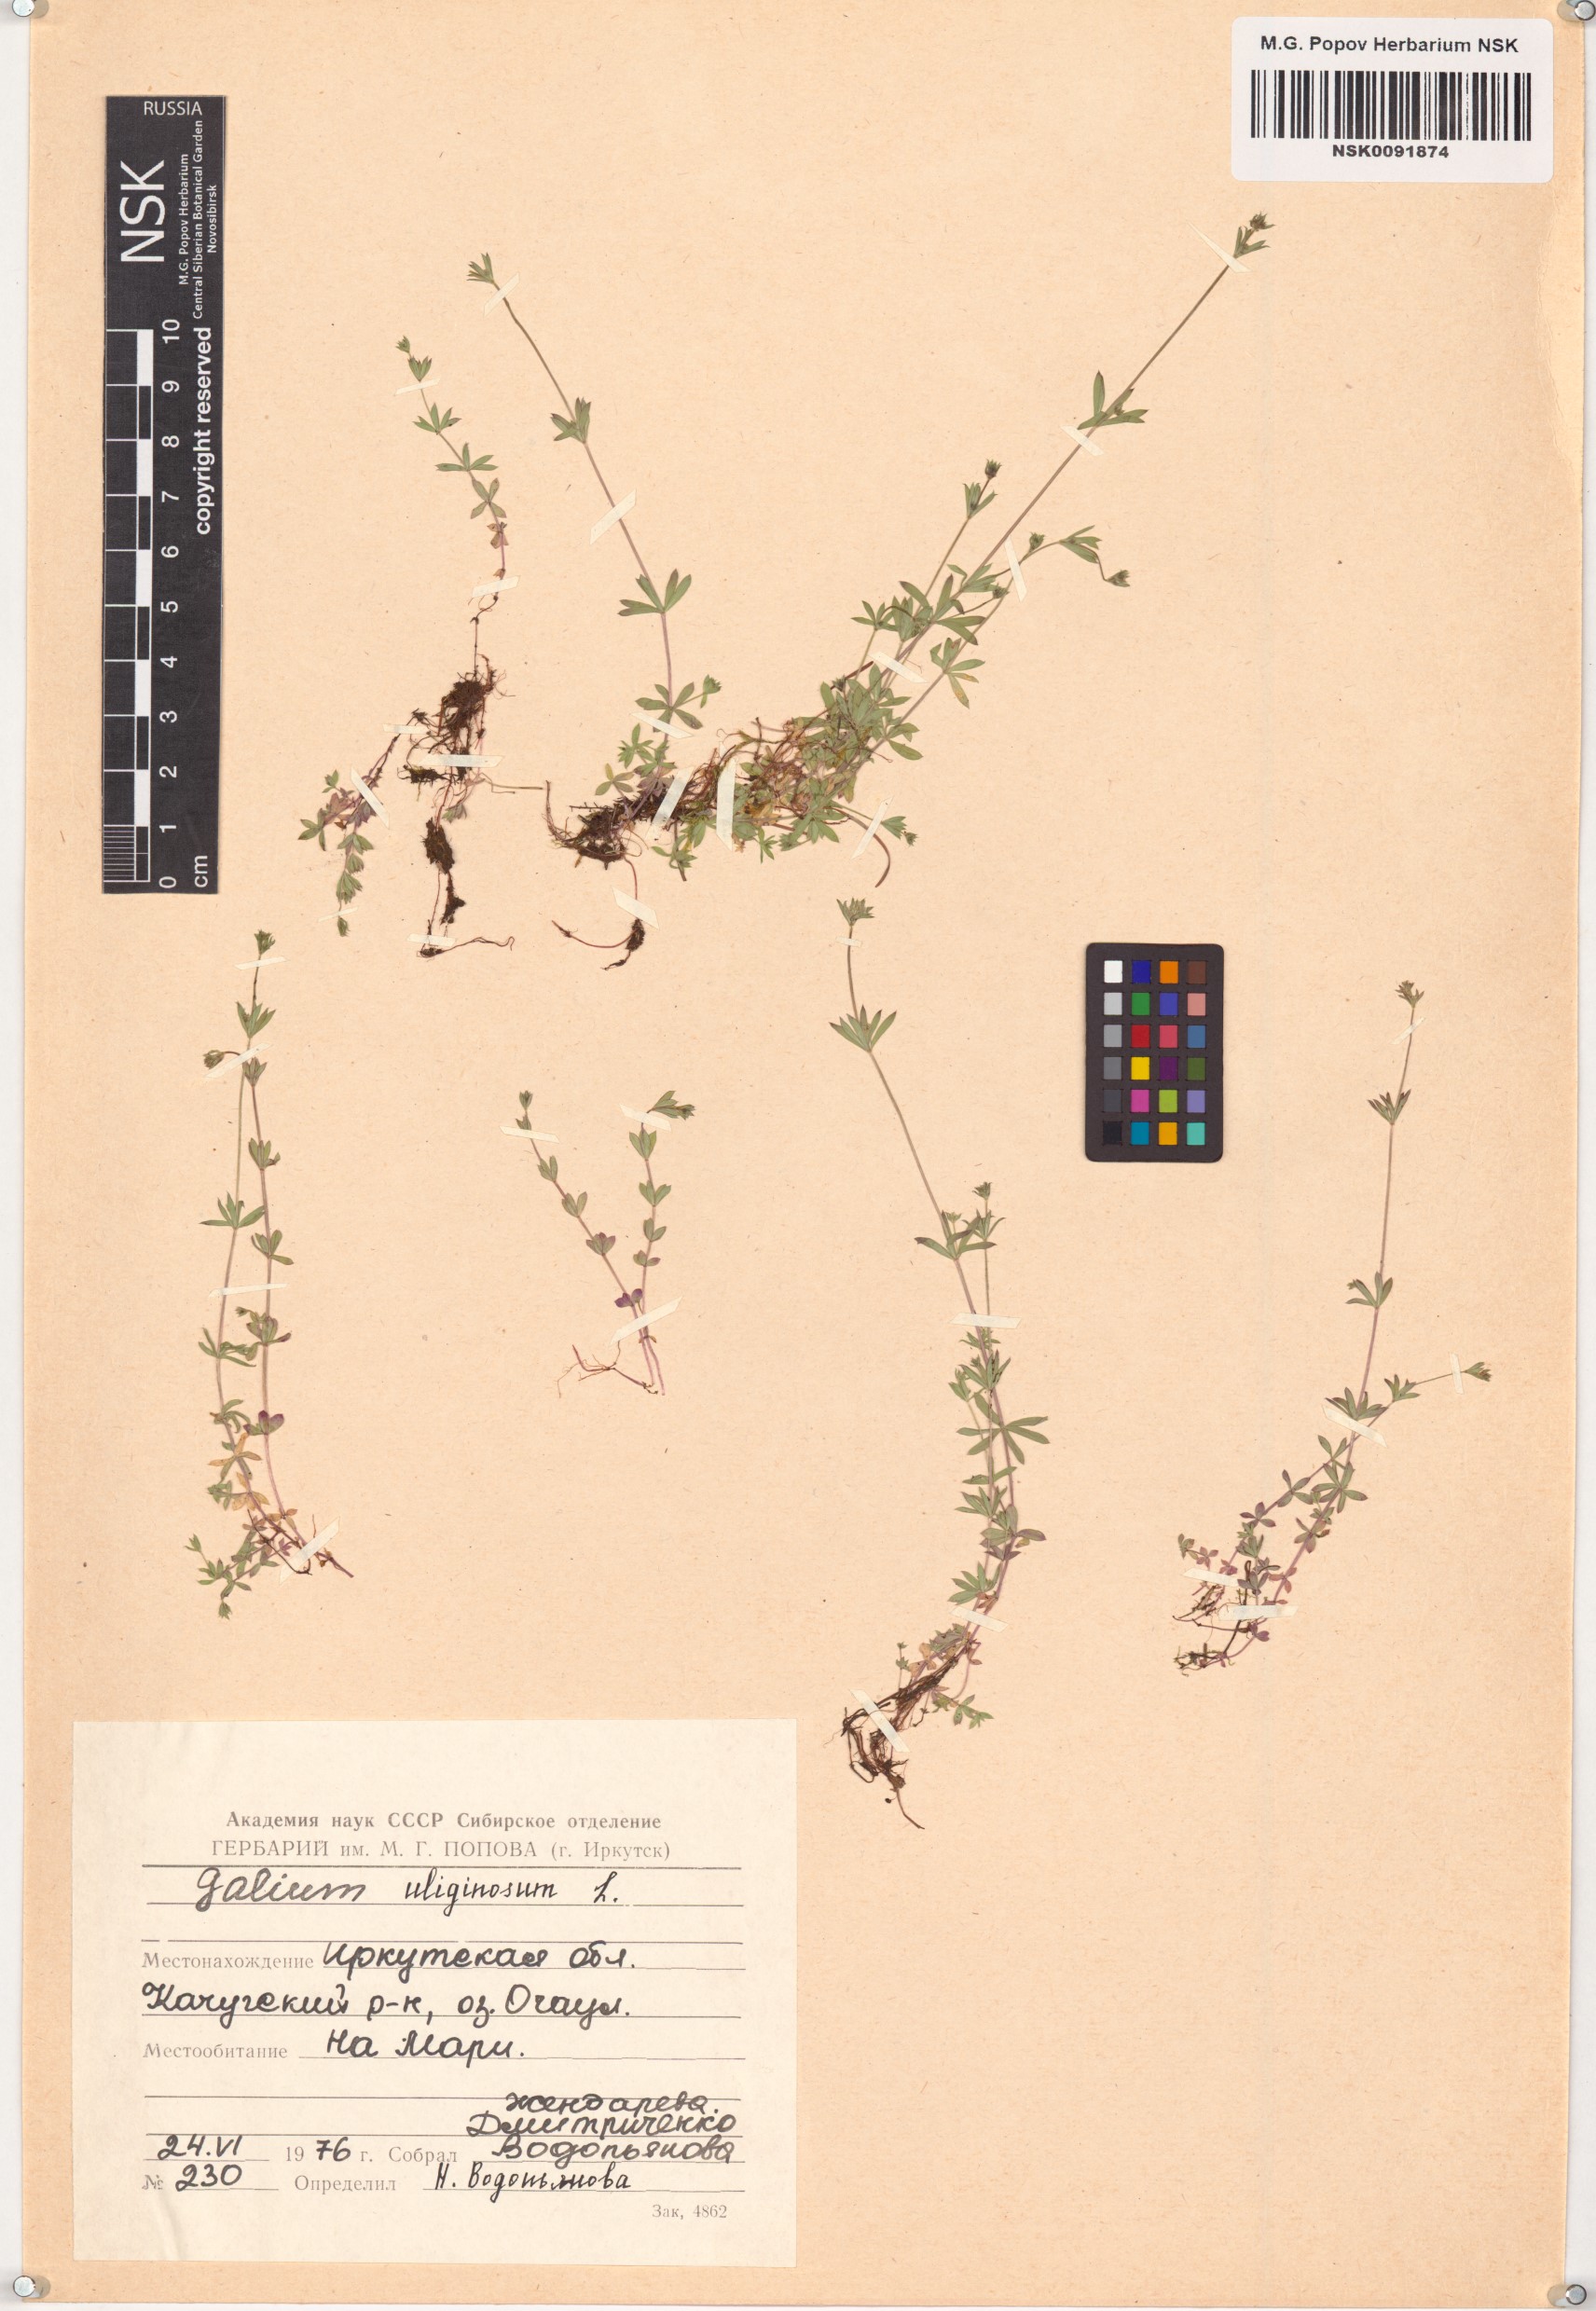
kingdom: Plantae
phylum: Tracheophyta
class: Magnoliopsida
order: Gentianales
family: Rubiaceae
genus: Galium
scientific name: Galium uliginosum
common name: Fen bedstraw
